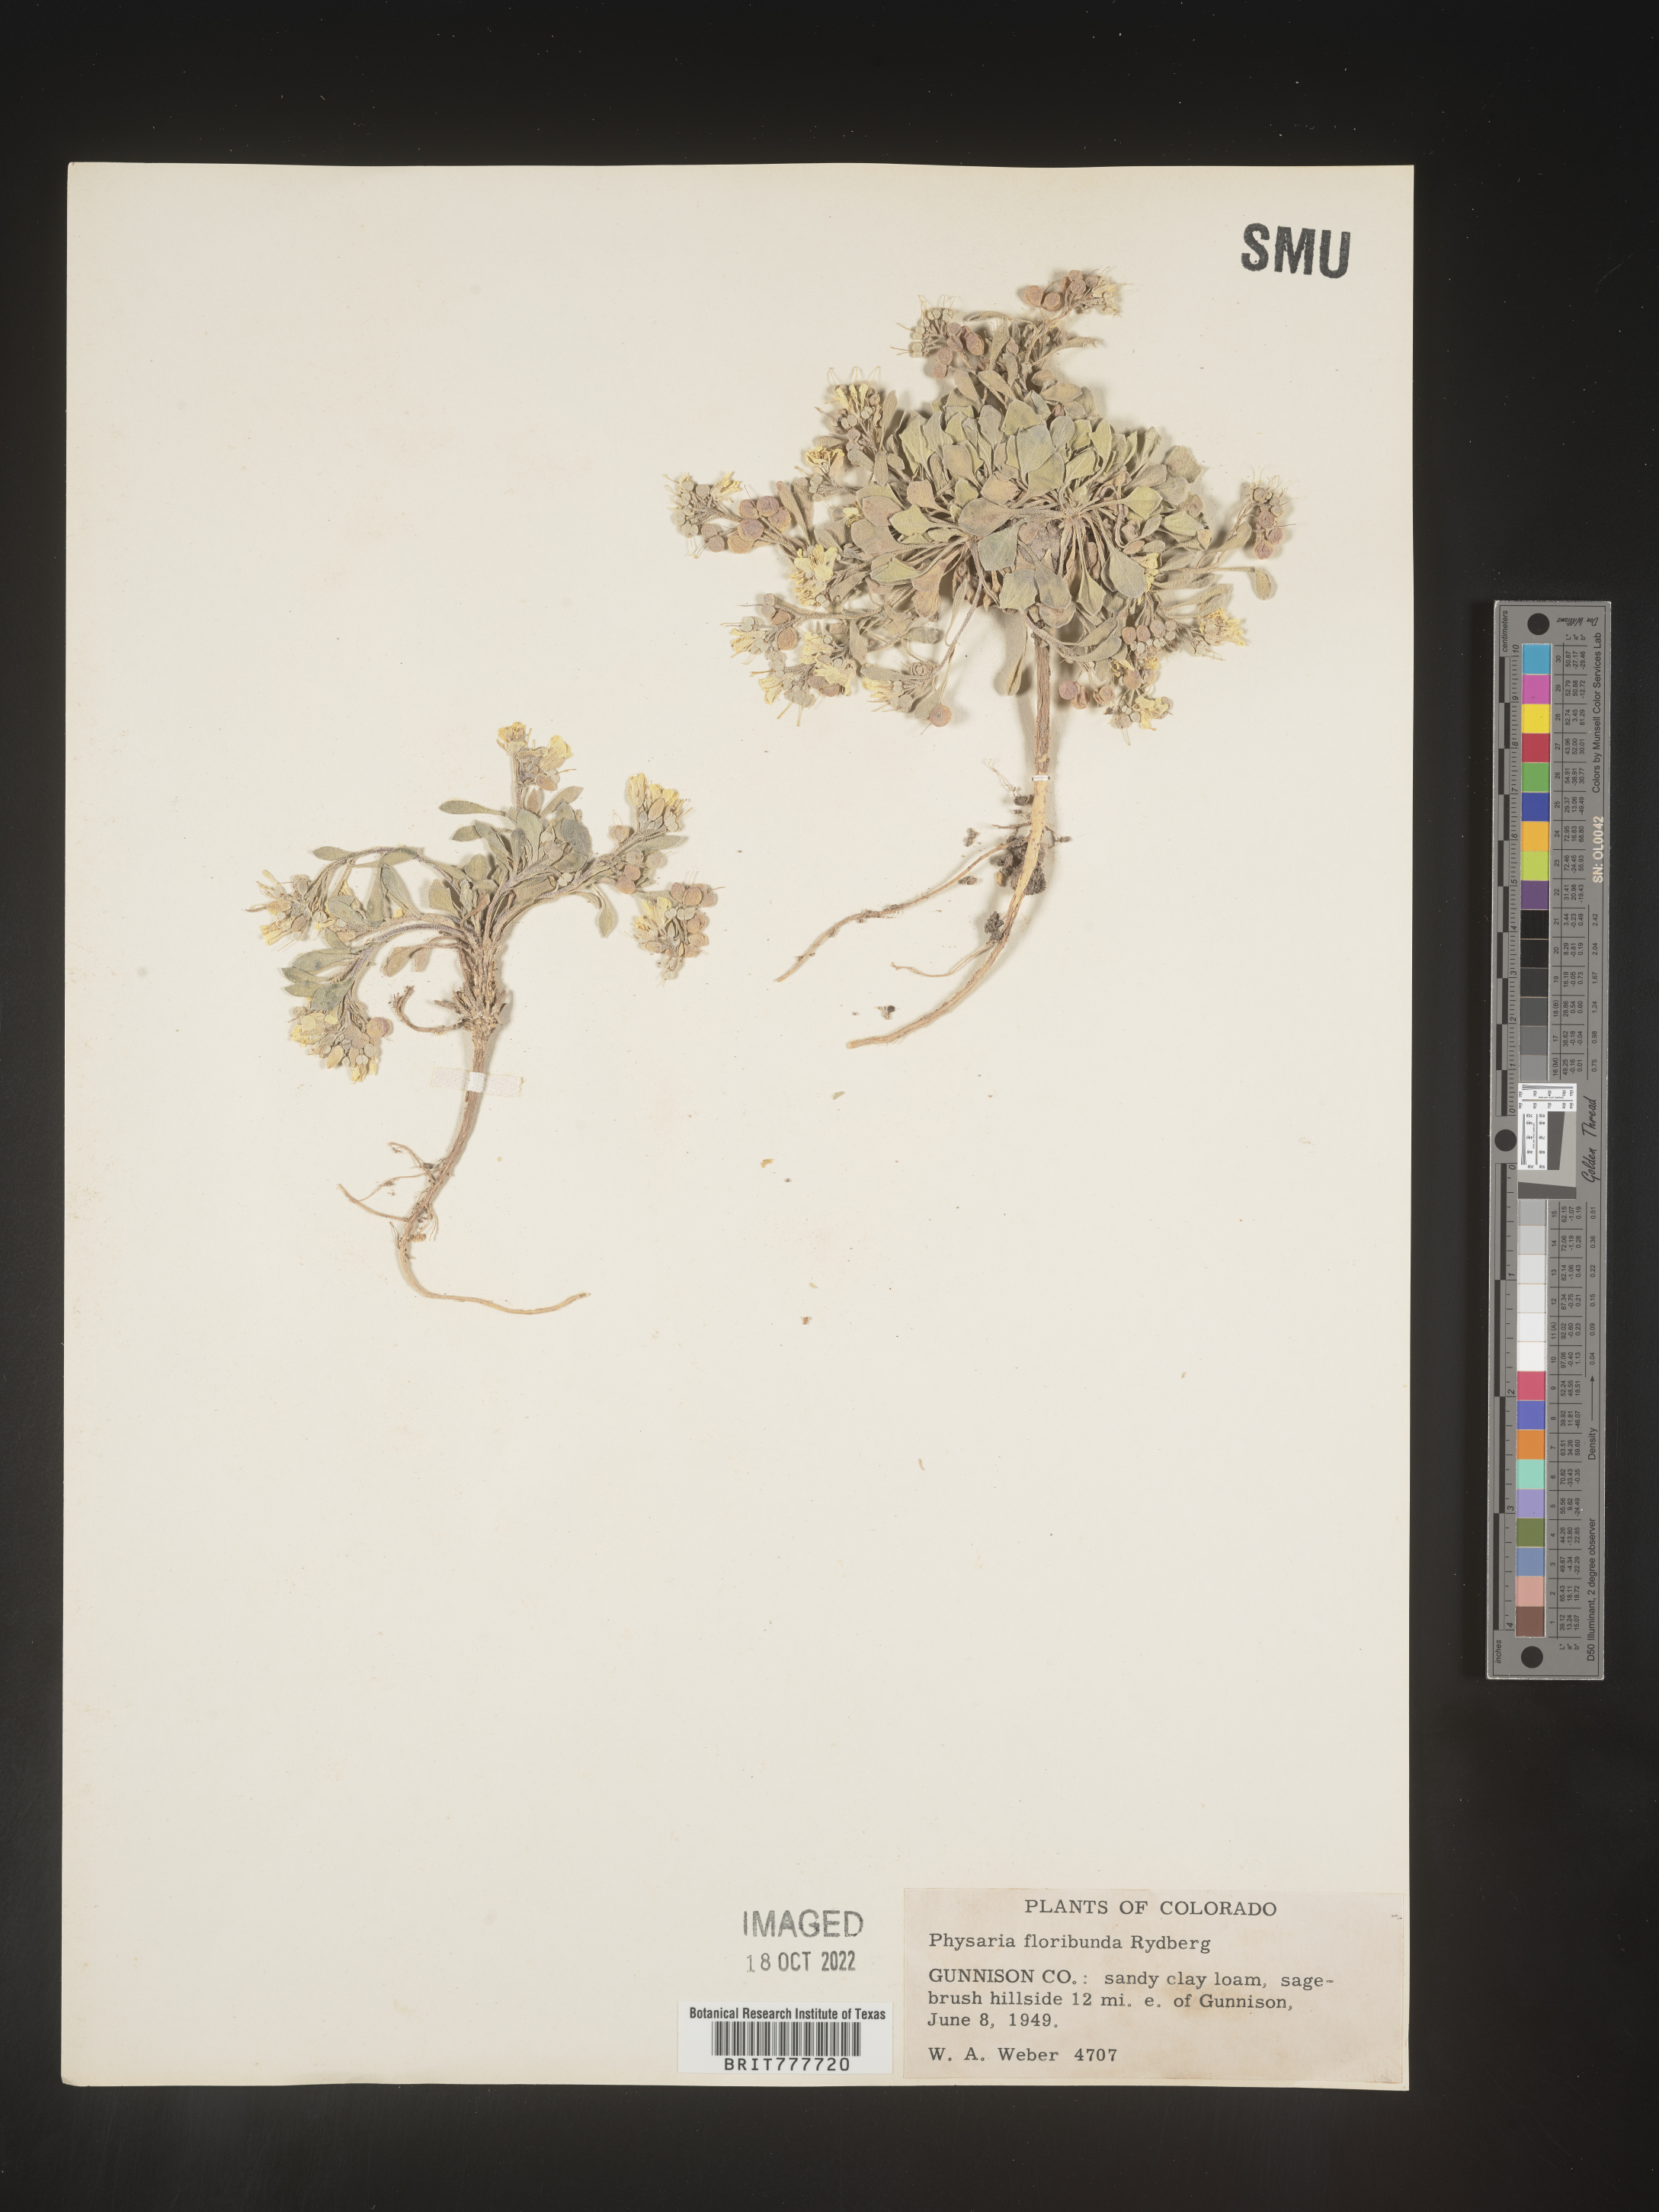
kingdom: Plantae
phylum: Tracheophyta
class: Magnoliopsida
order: Brassicales
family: Brassicaceae
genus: Physaria
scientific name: Physaria floribunda
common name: Point-tip twinpod
